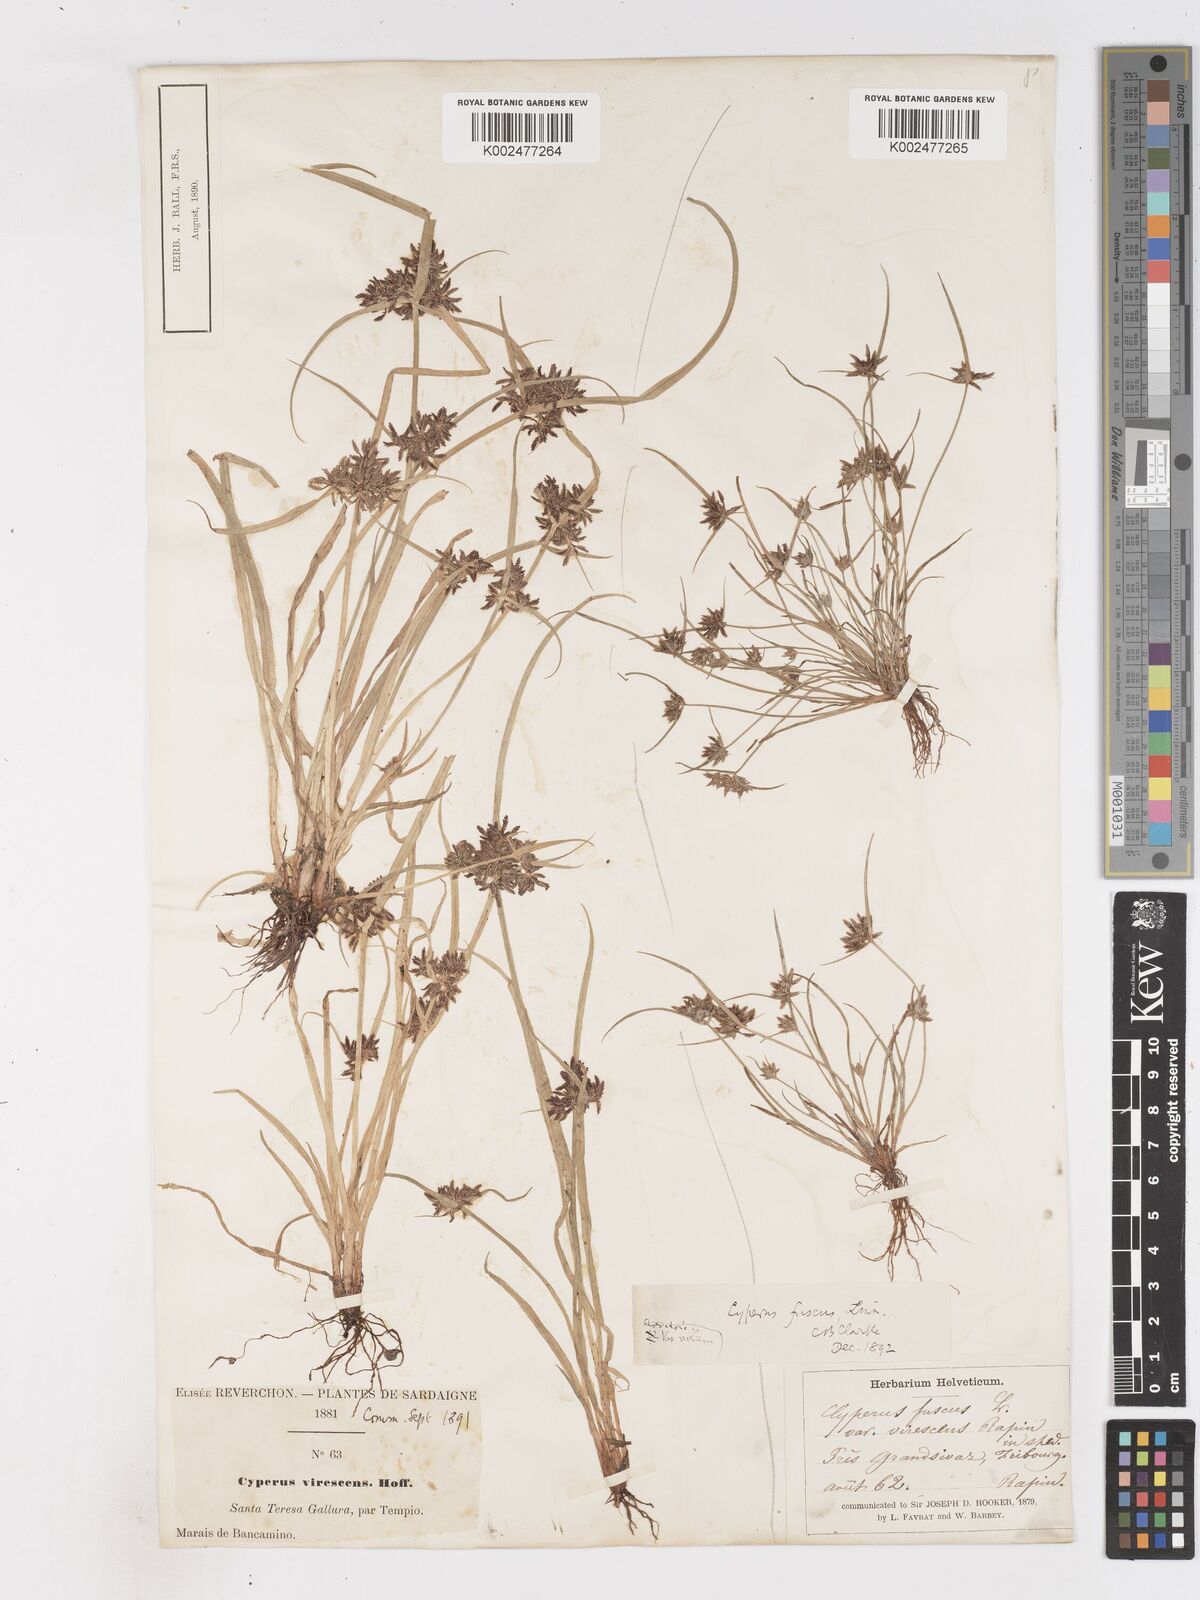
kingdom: Plantae
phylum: Tracheophyta
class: Liliopsida
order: Poales
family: Cyperaceae
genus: Cyperus
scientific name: Cyperus fuscus
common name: Brown galingale
